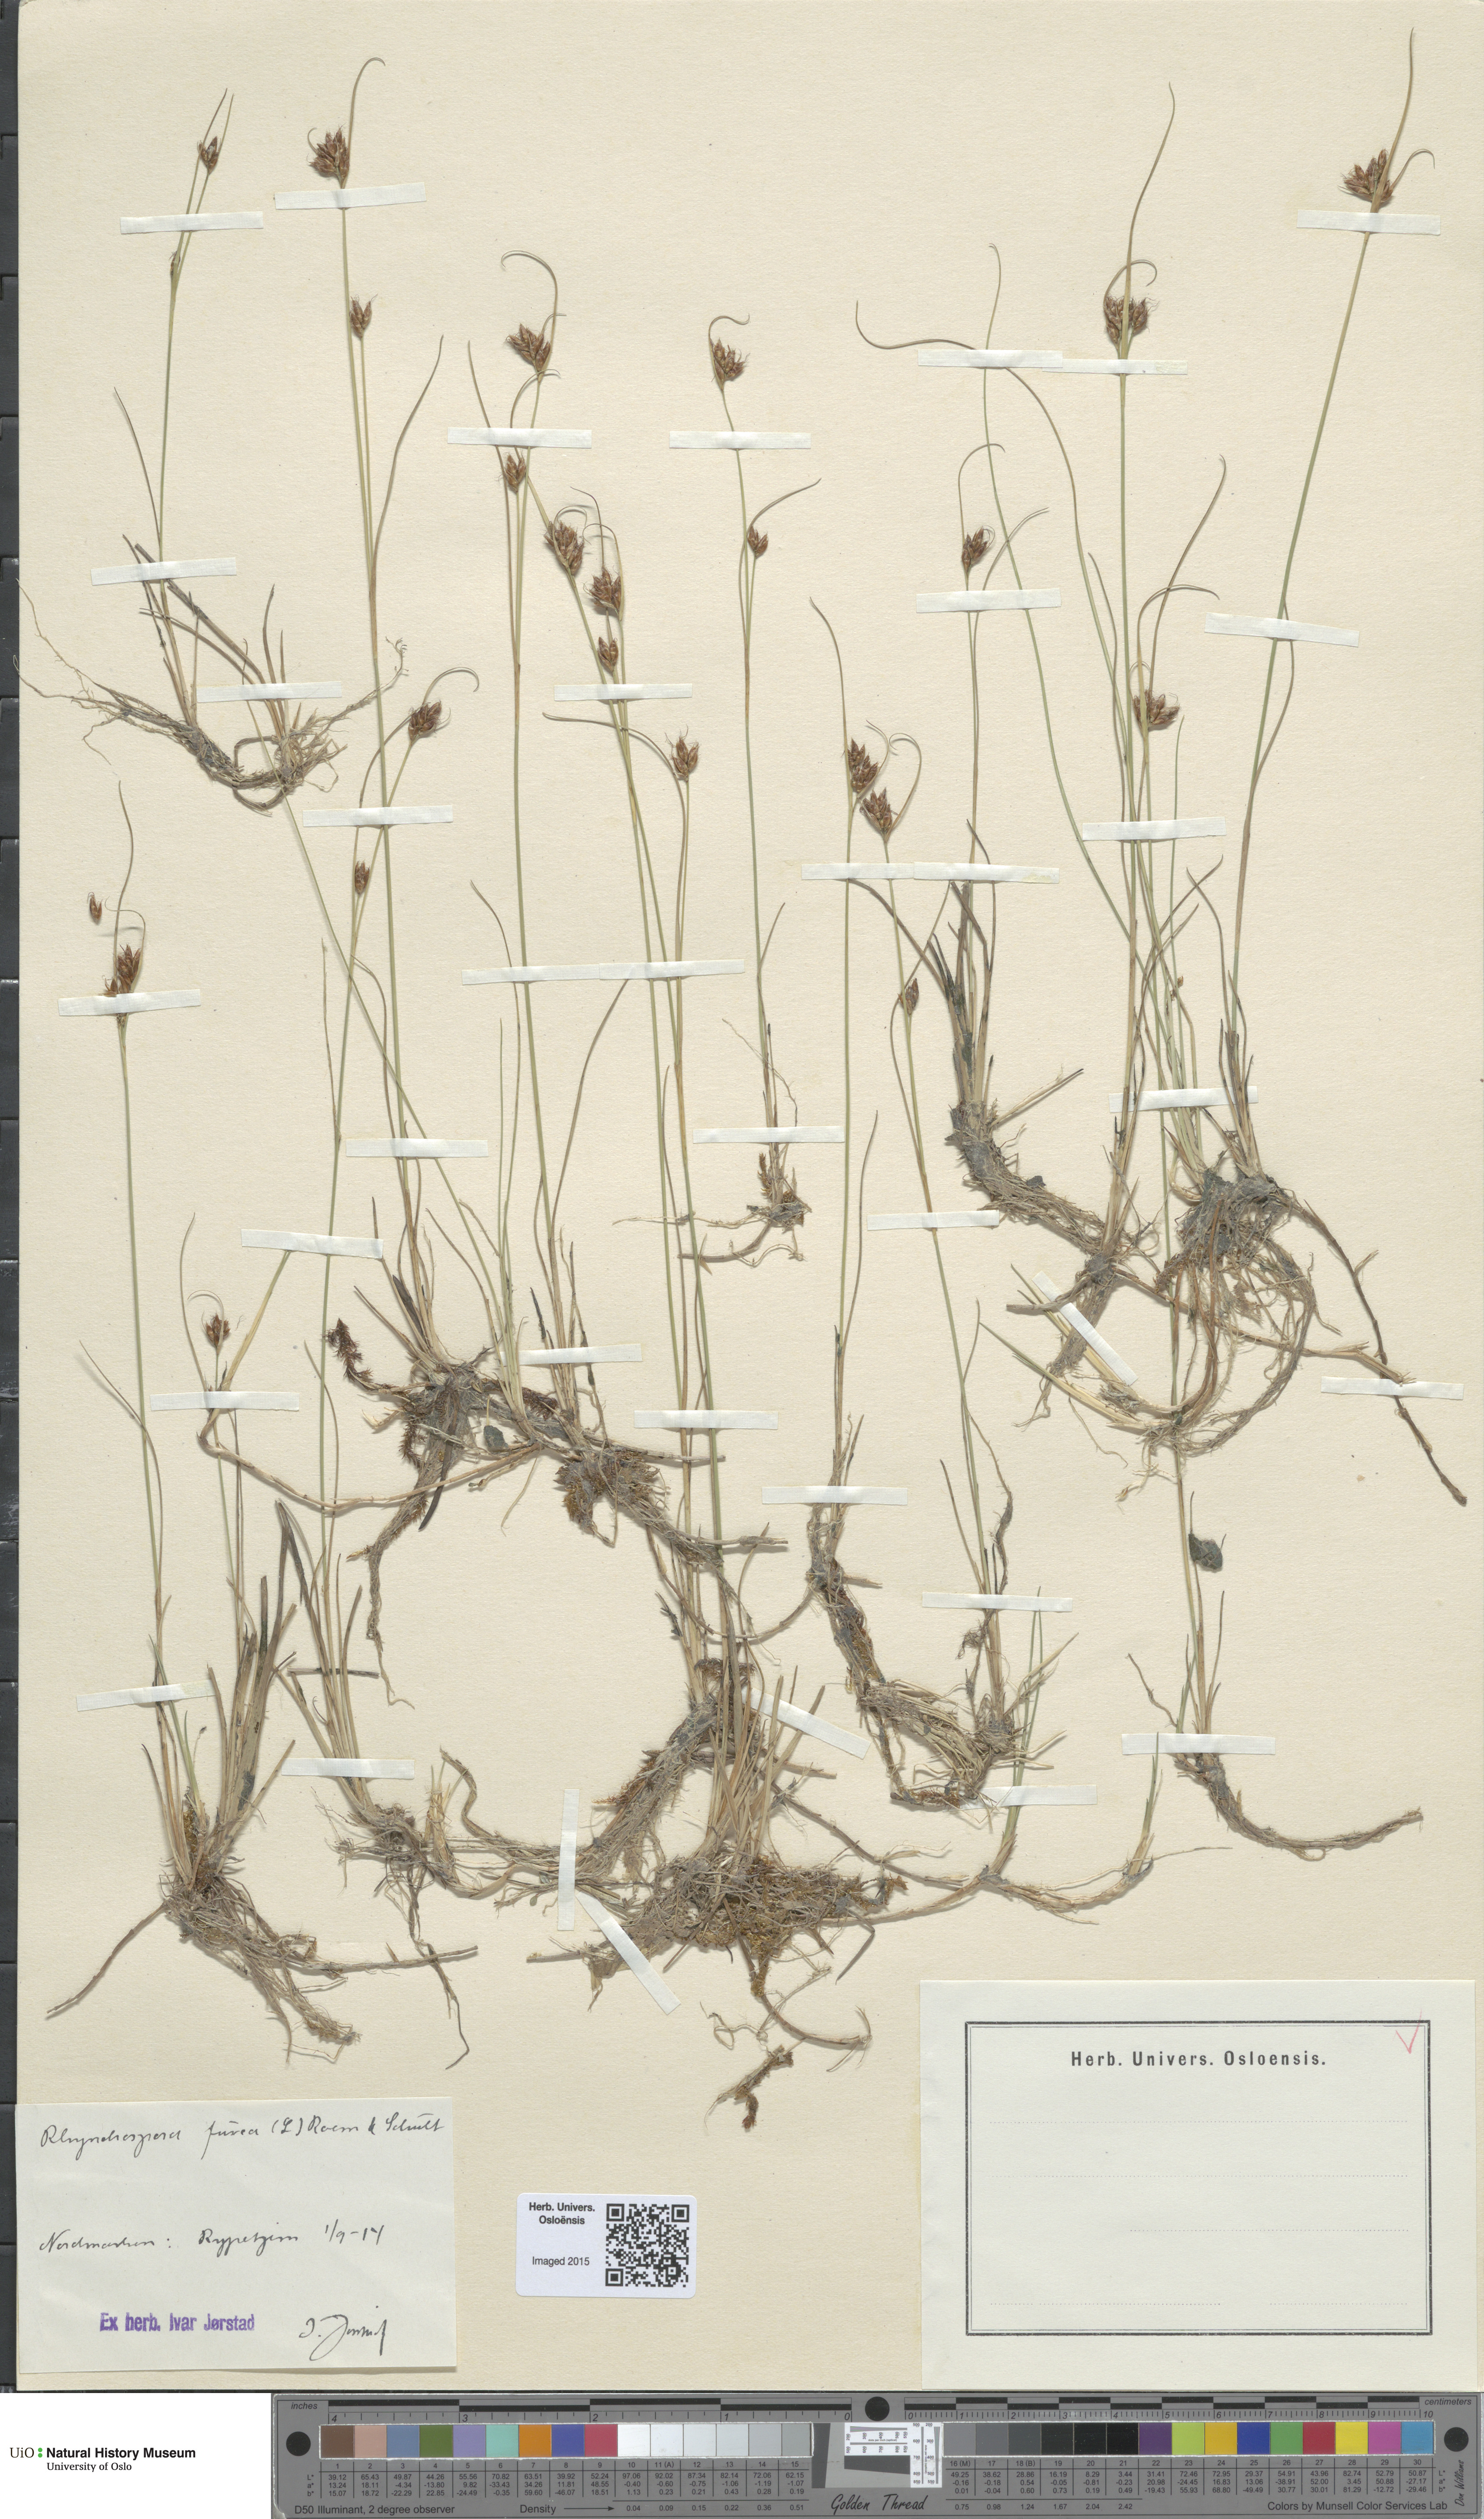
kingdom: Plantae
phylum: Tracheophyta
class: Liliopsida
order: Poales
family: Cyperaceae
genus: Rhynchospora
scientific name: Rhynchospora fusca
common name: Brown beak-sedge
